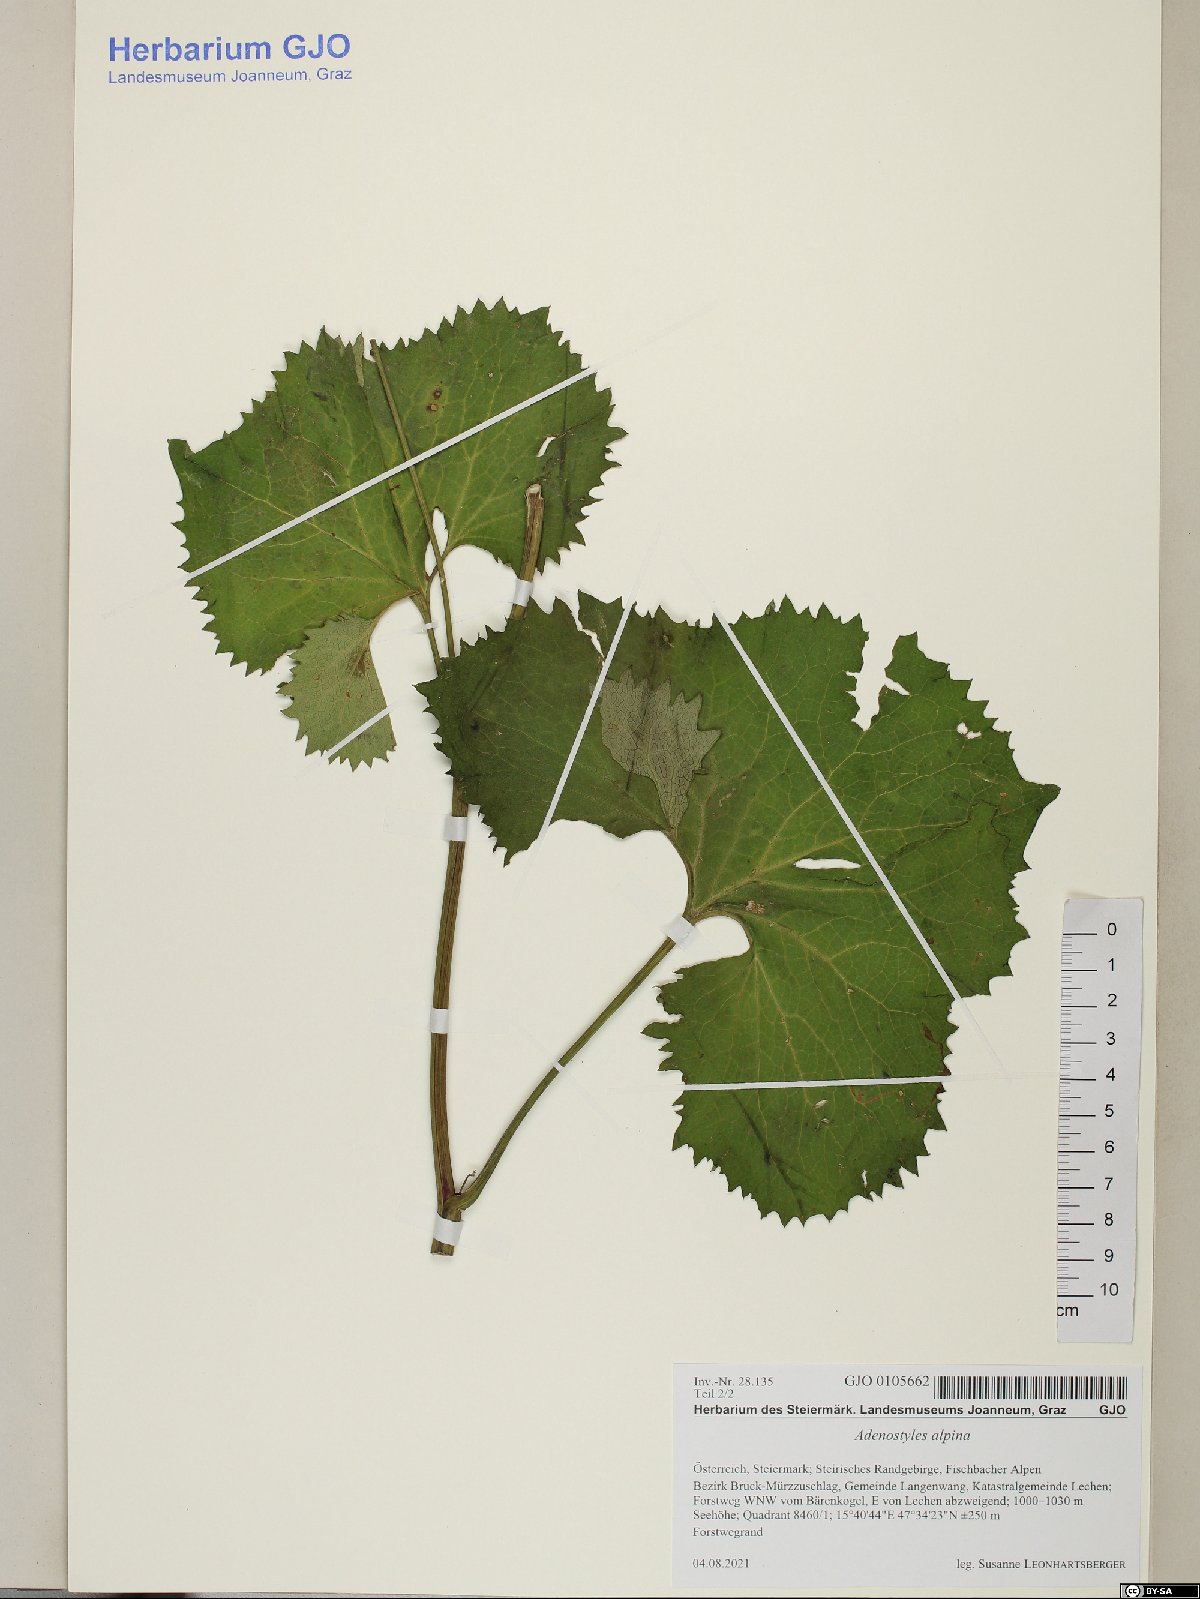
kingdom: Plantae
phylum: Tracheophyta
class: Magnoliopsida
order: Asterales
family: Asteraceae
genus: Adenostyles
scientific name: Adenostyles alpina
